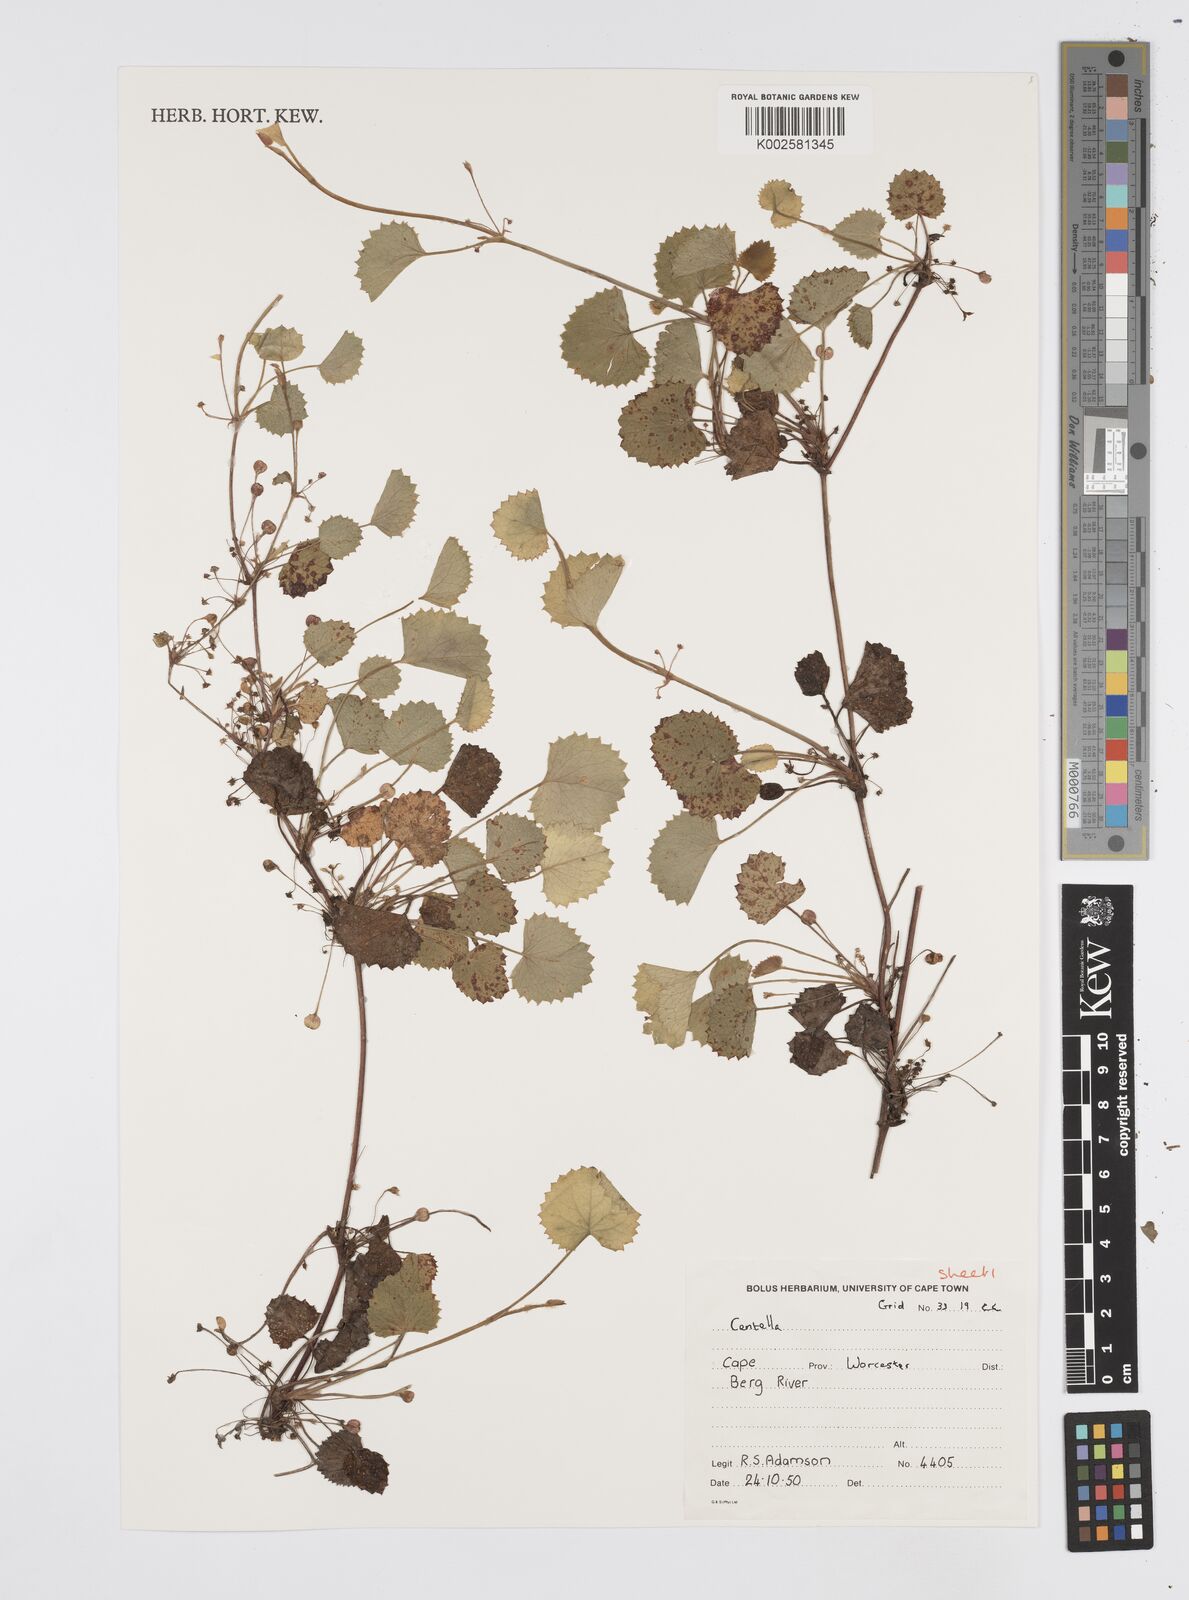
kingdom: Plantae
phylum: Tracheophyta
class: Magnoliopsida
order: Apiales
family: Apiaceae
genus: Centella
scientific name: Centella
